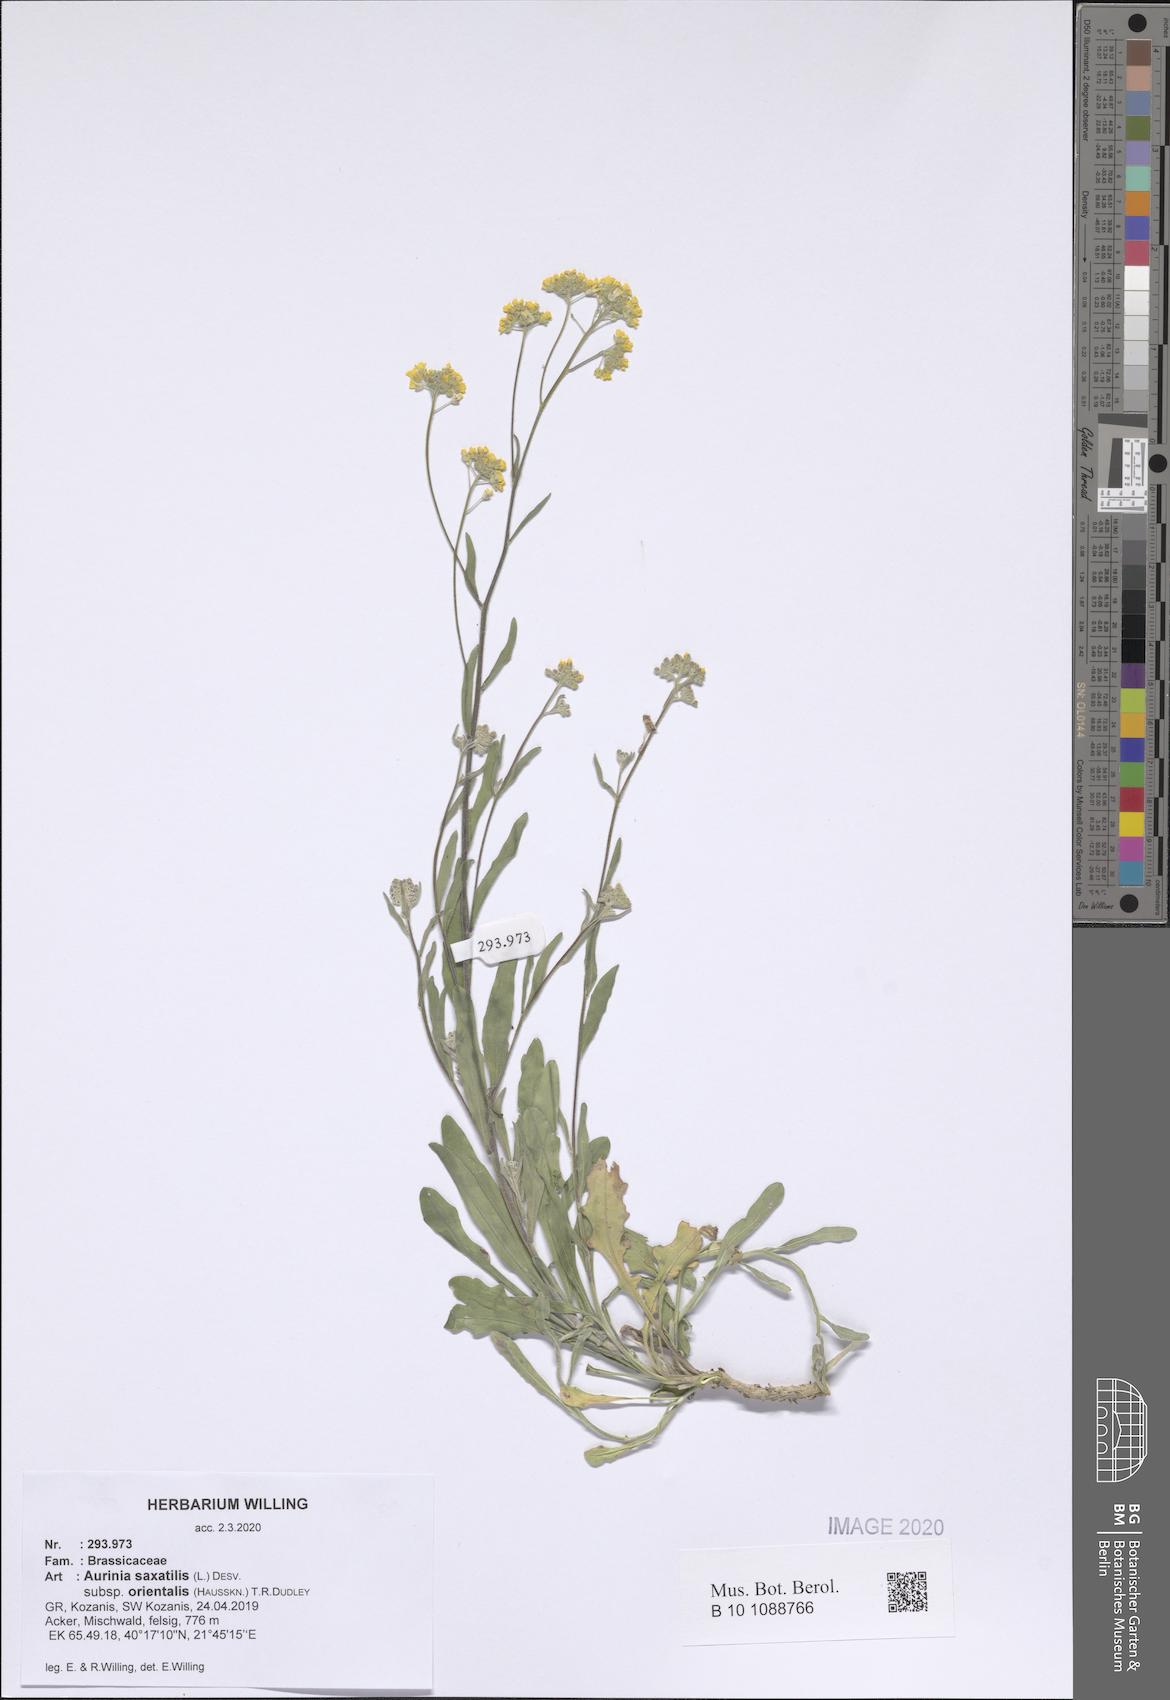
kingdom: Plantae
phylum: Tracheophyta
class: Magnoliopsida
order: Brassicales
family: Brassicaceae
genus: Aurinia
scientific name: Aurinia saxatilis
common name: Golden-tuft alyssum
